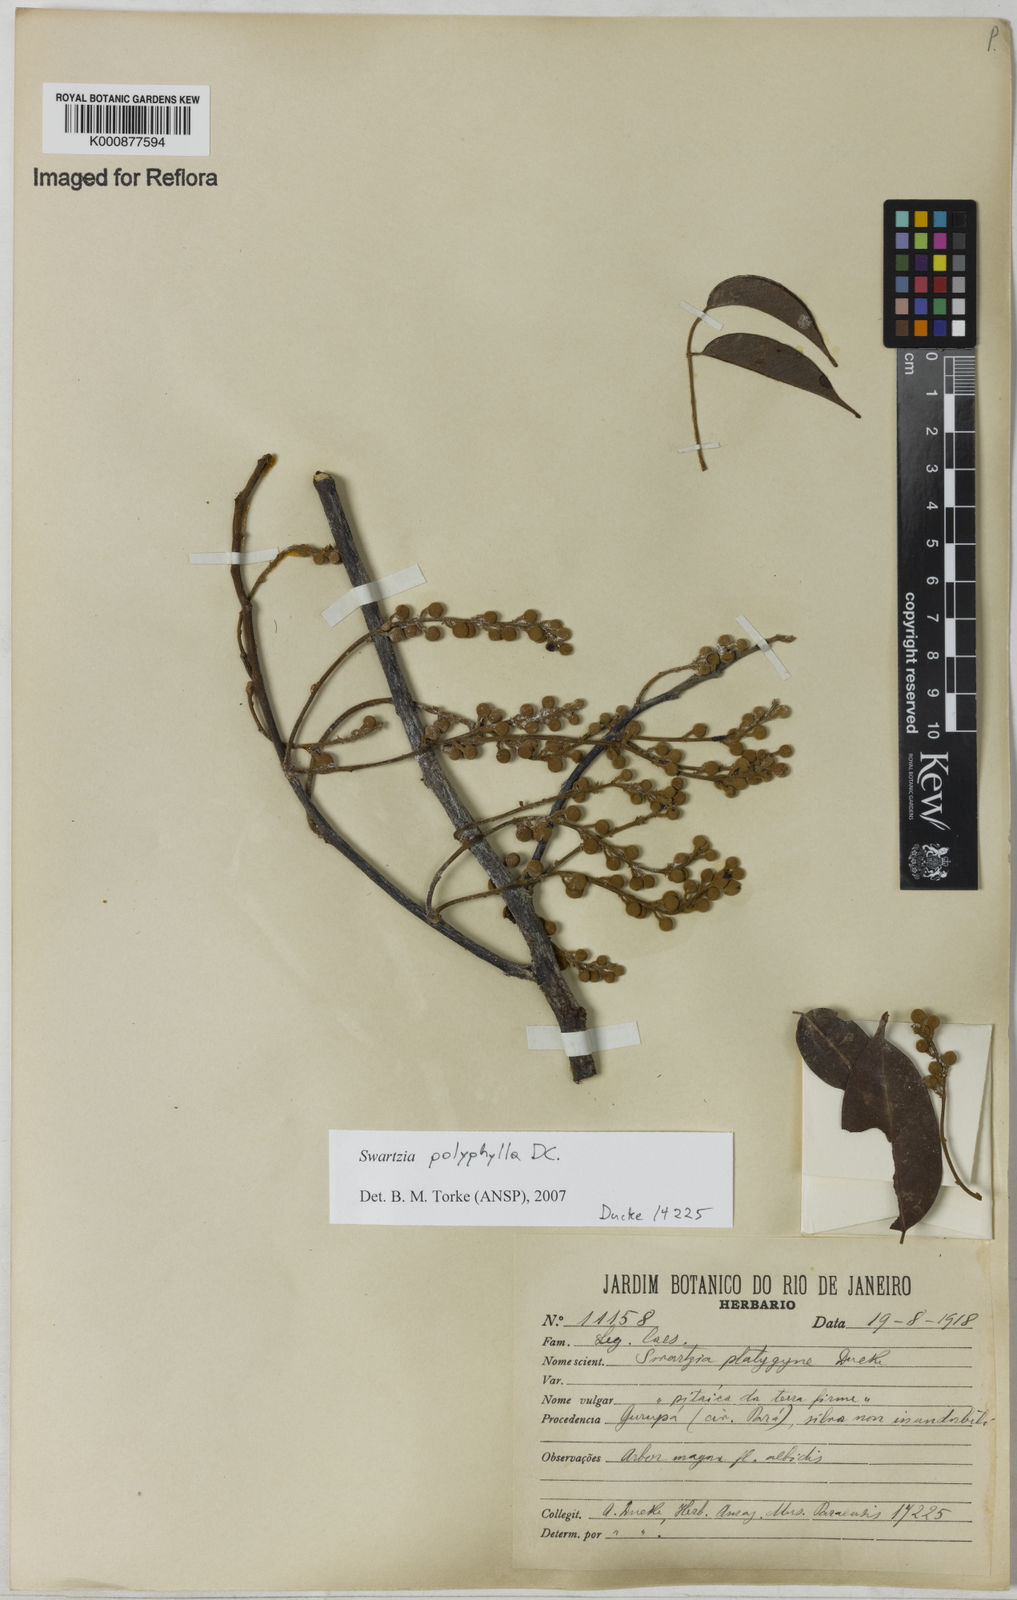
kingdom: Plantae
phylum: Tracheophyta
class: Magnoliopsida
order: Fabales
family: Fabaceae
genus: Swartzia
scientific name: Swartzia polyphylla
